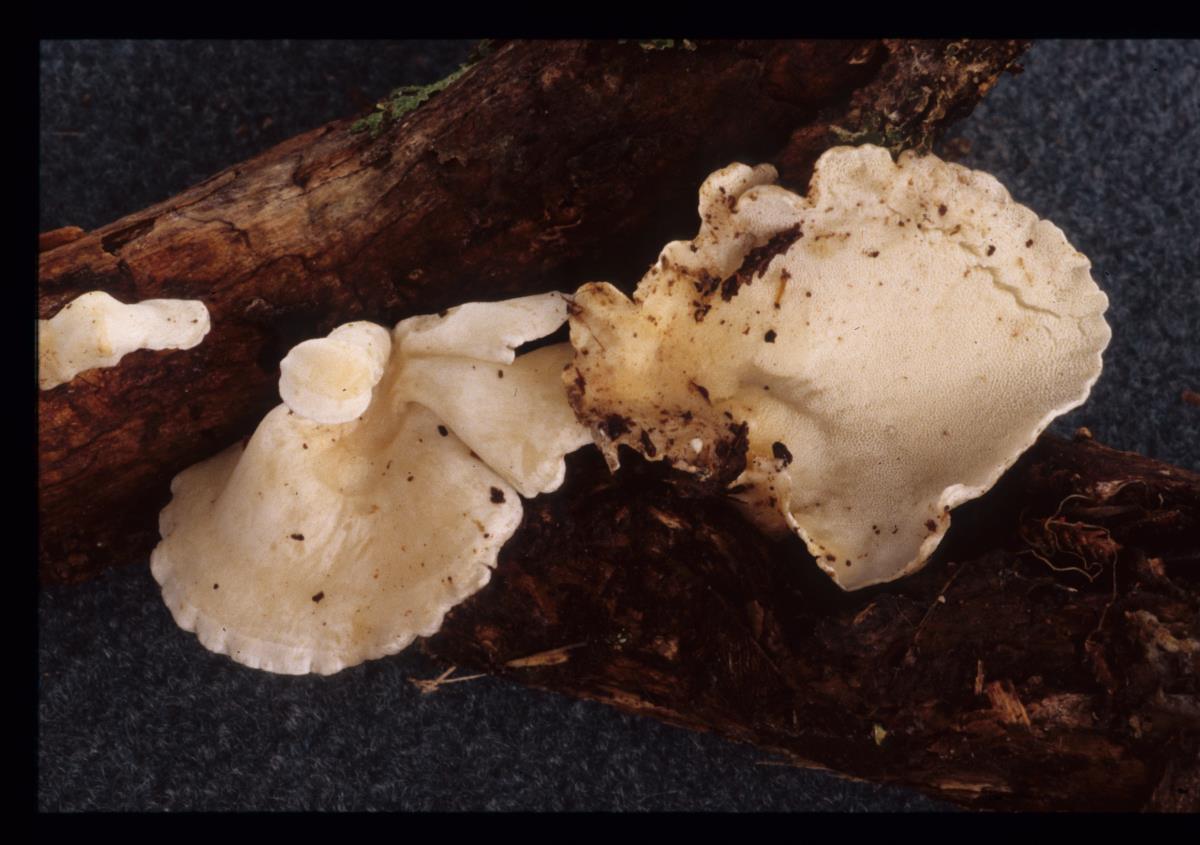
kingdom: Fungi
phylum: Basidiomycota
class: Agaricomycetes
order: Polyporales
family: Irpicaceae
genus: Gloeoporus
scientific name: Gloeoporus phlebophorus
